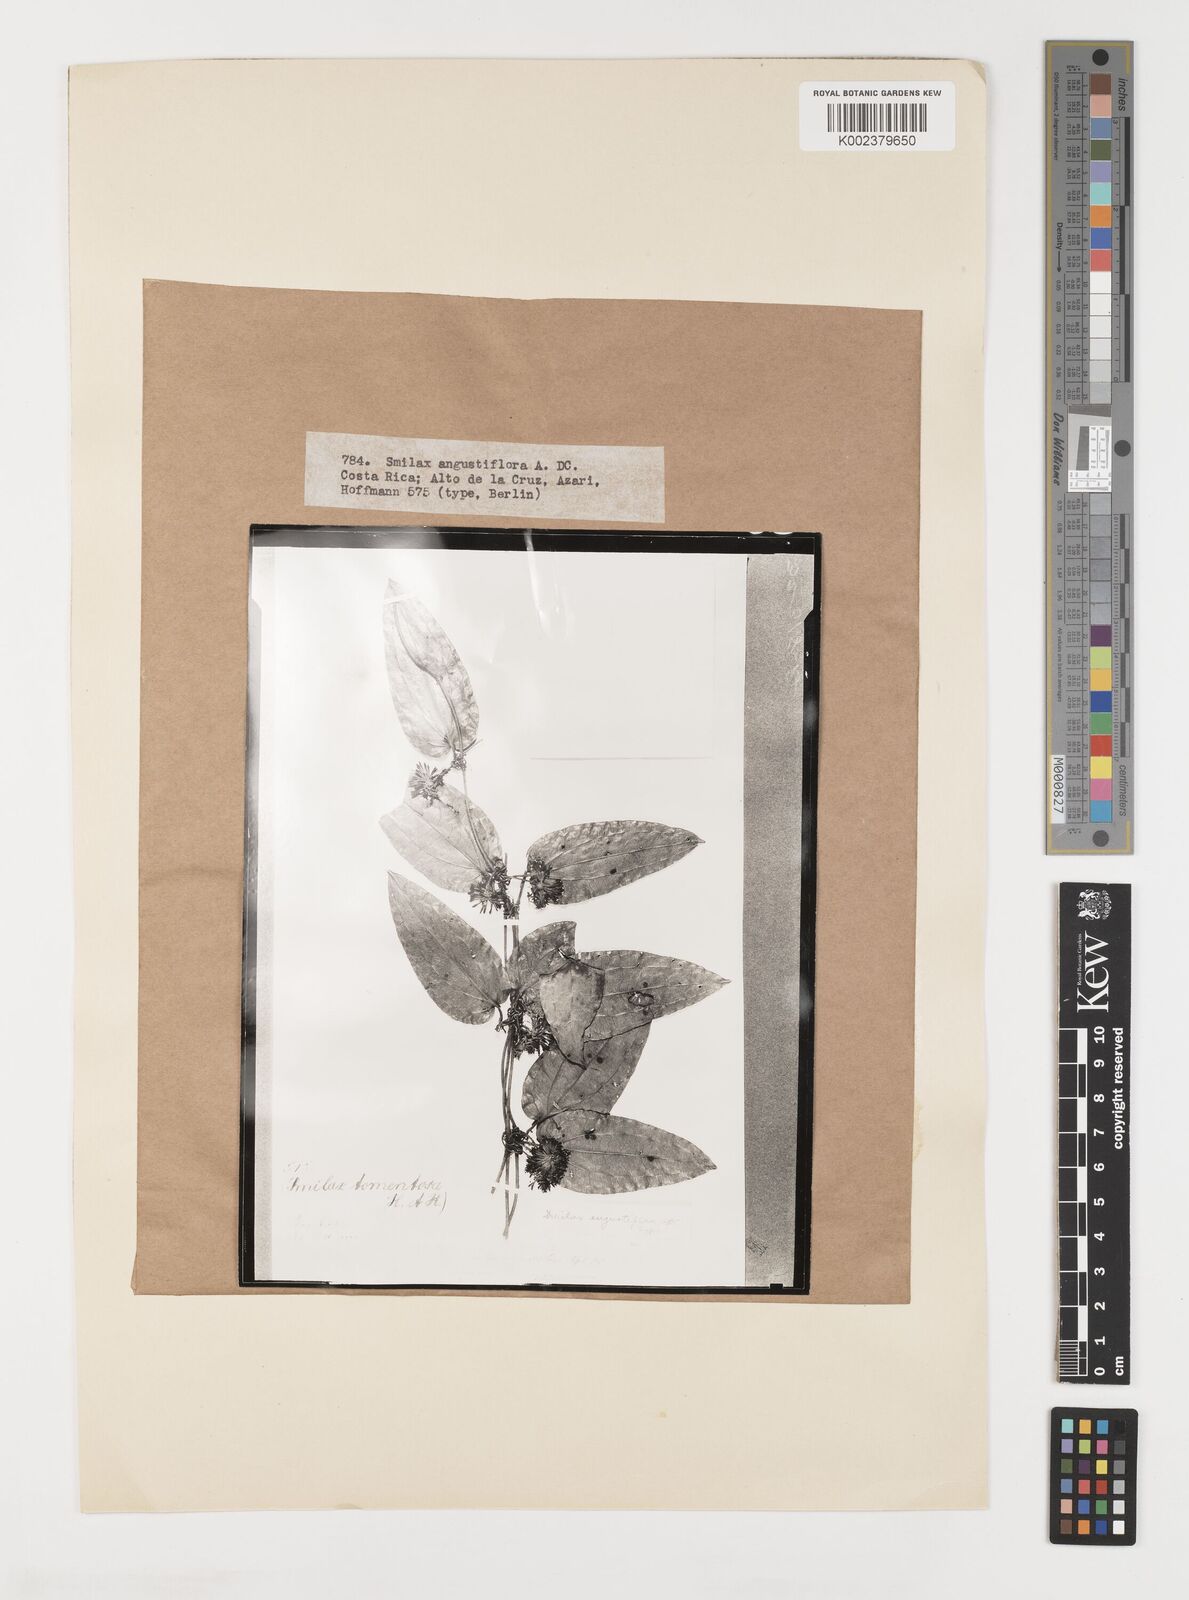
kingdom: Plantae
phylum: Tracheophyta
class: Liliopsida
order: Liliales
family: Smilacaceae
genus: Smilax
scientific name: Smilax mollis
